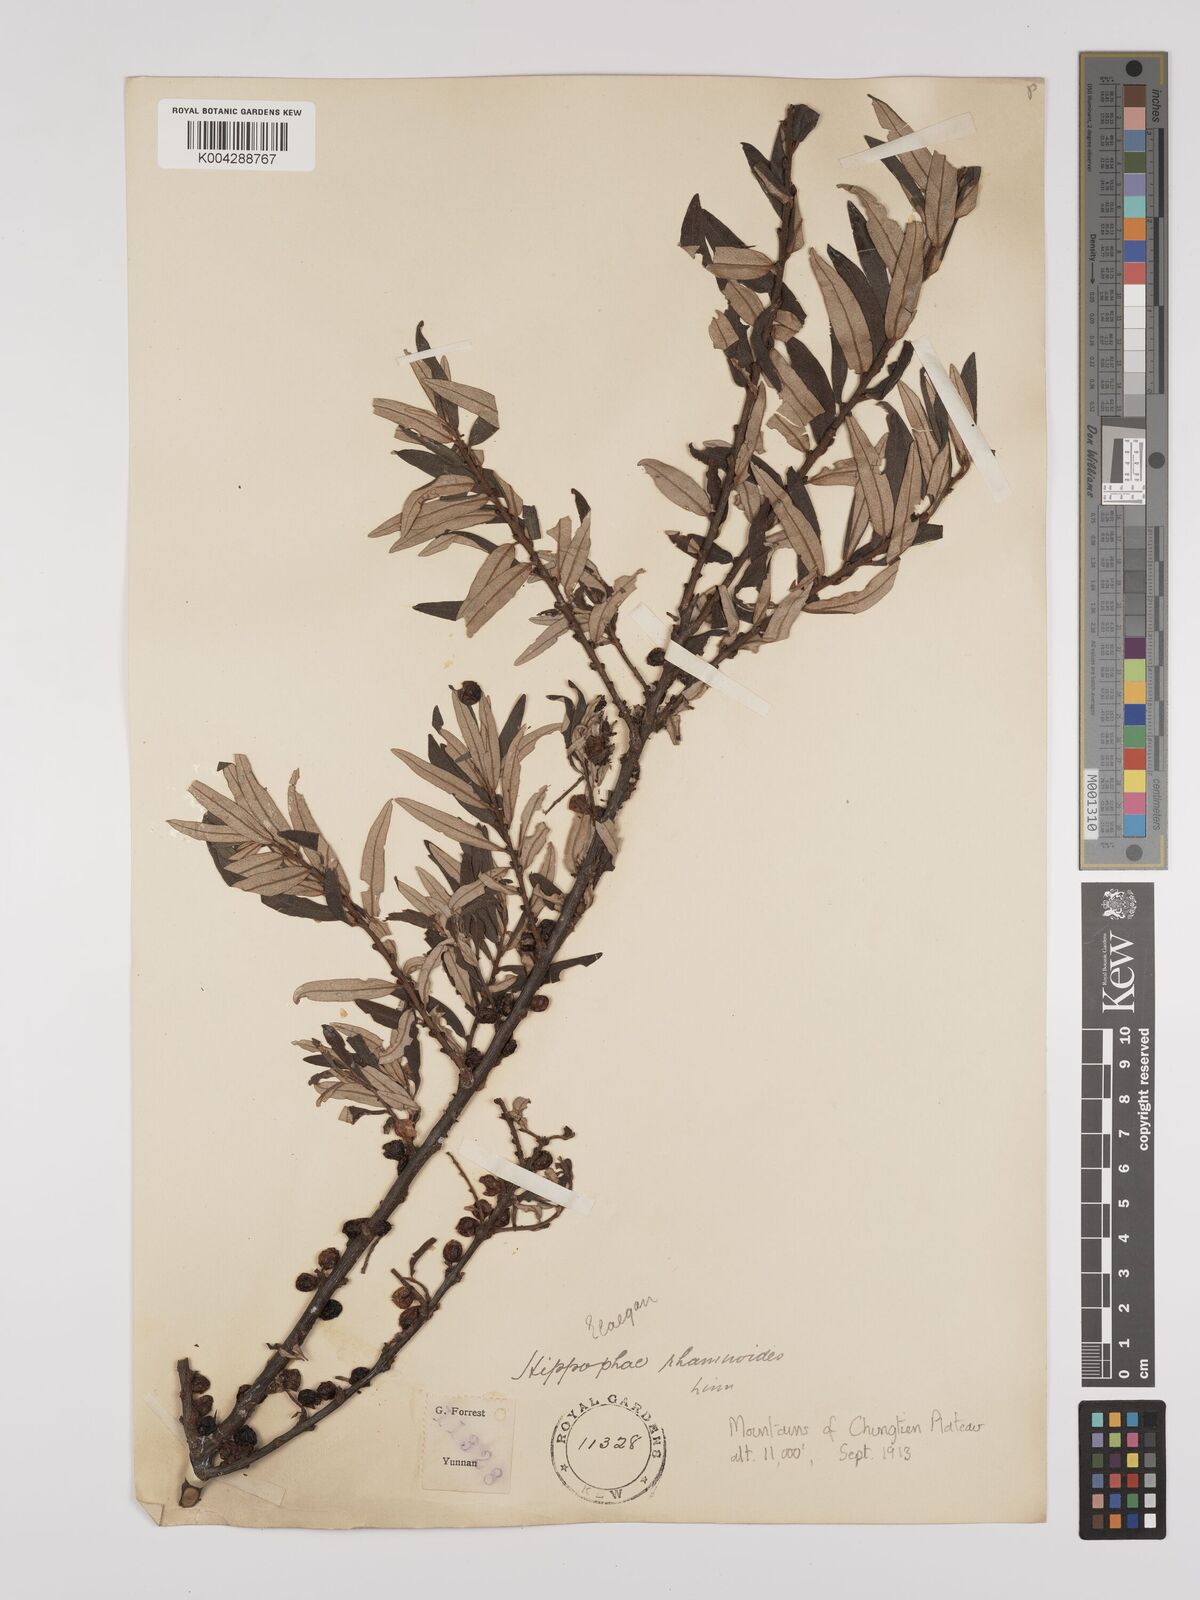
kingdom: Plantae
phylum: Tracheophyta
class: Magnoliopsida
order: Rosales
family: Elaeagnaceae
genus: Hippophae
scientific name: Hippophae rhamnoides
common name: Sea-buckthorn
